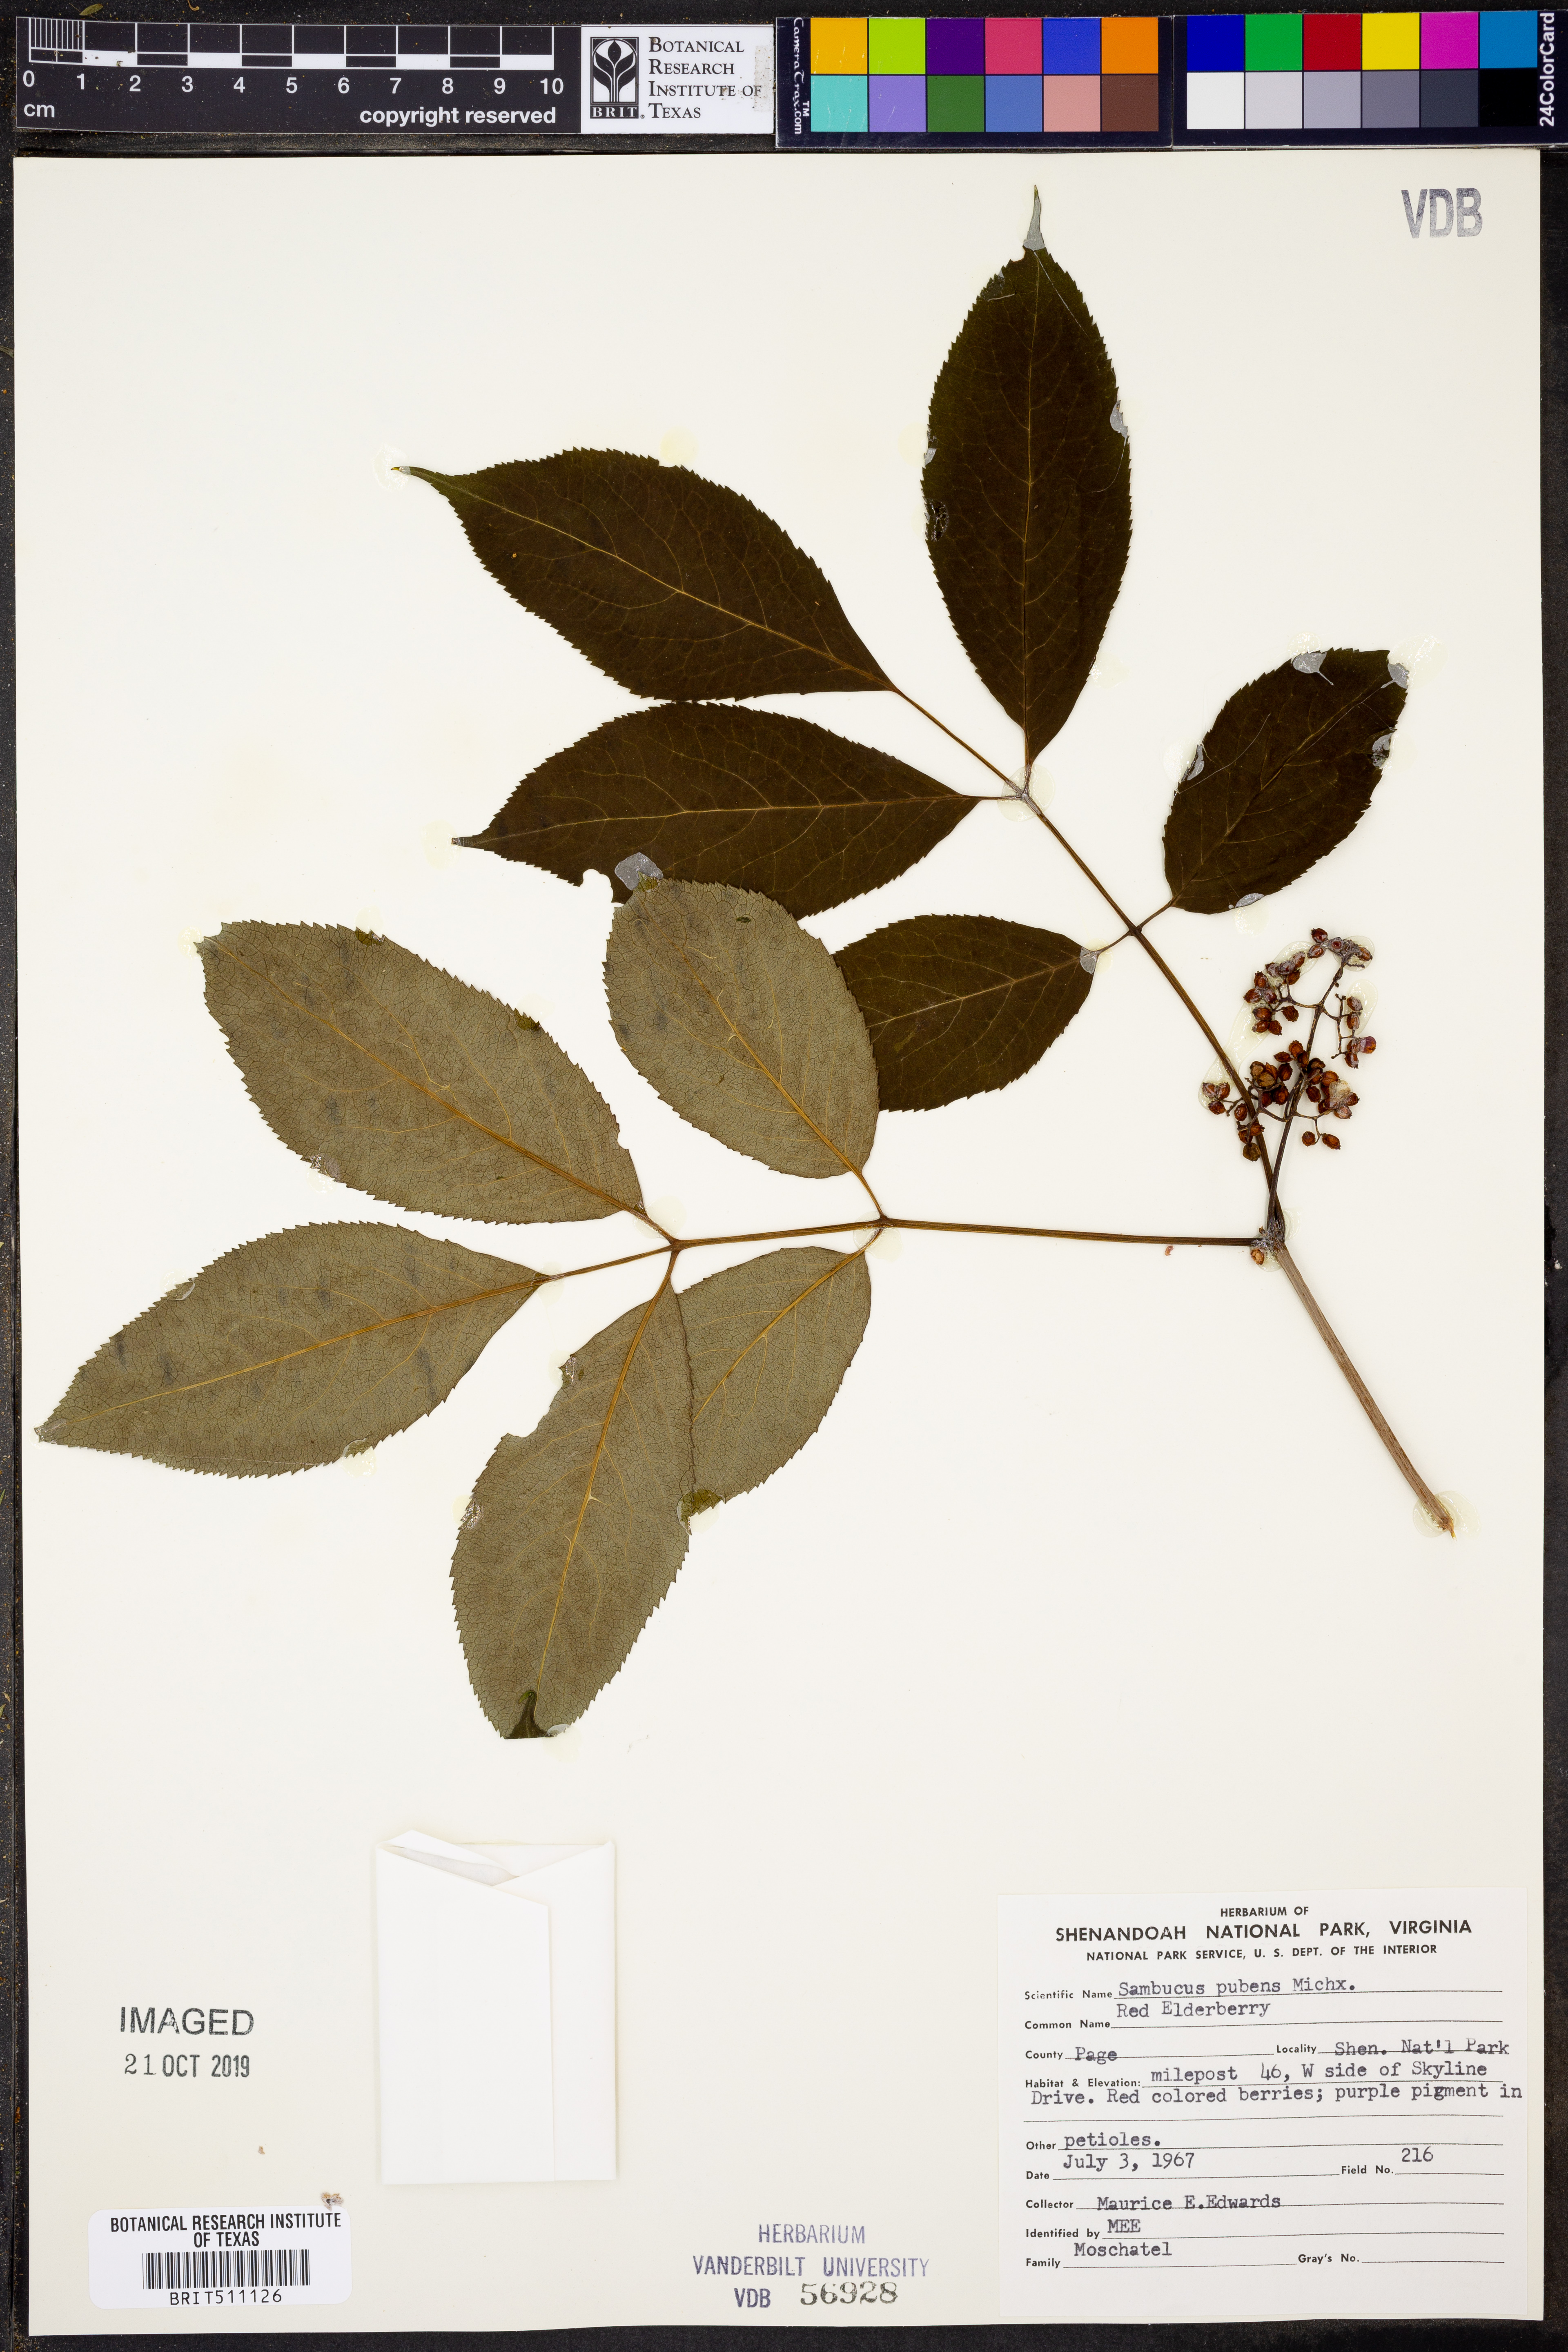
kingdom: Plantae
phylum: Tracheophyta
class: Magnoliopsida
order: Dipsacales
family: Viburnaceae
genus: Sambucus
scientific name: Sambucus racemosa
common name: Red-berried elder
